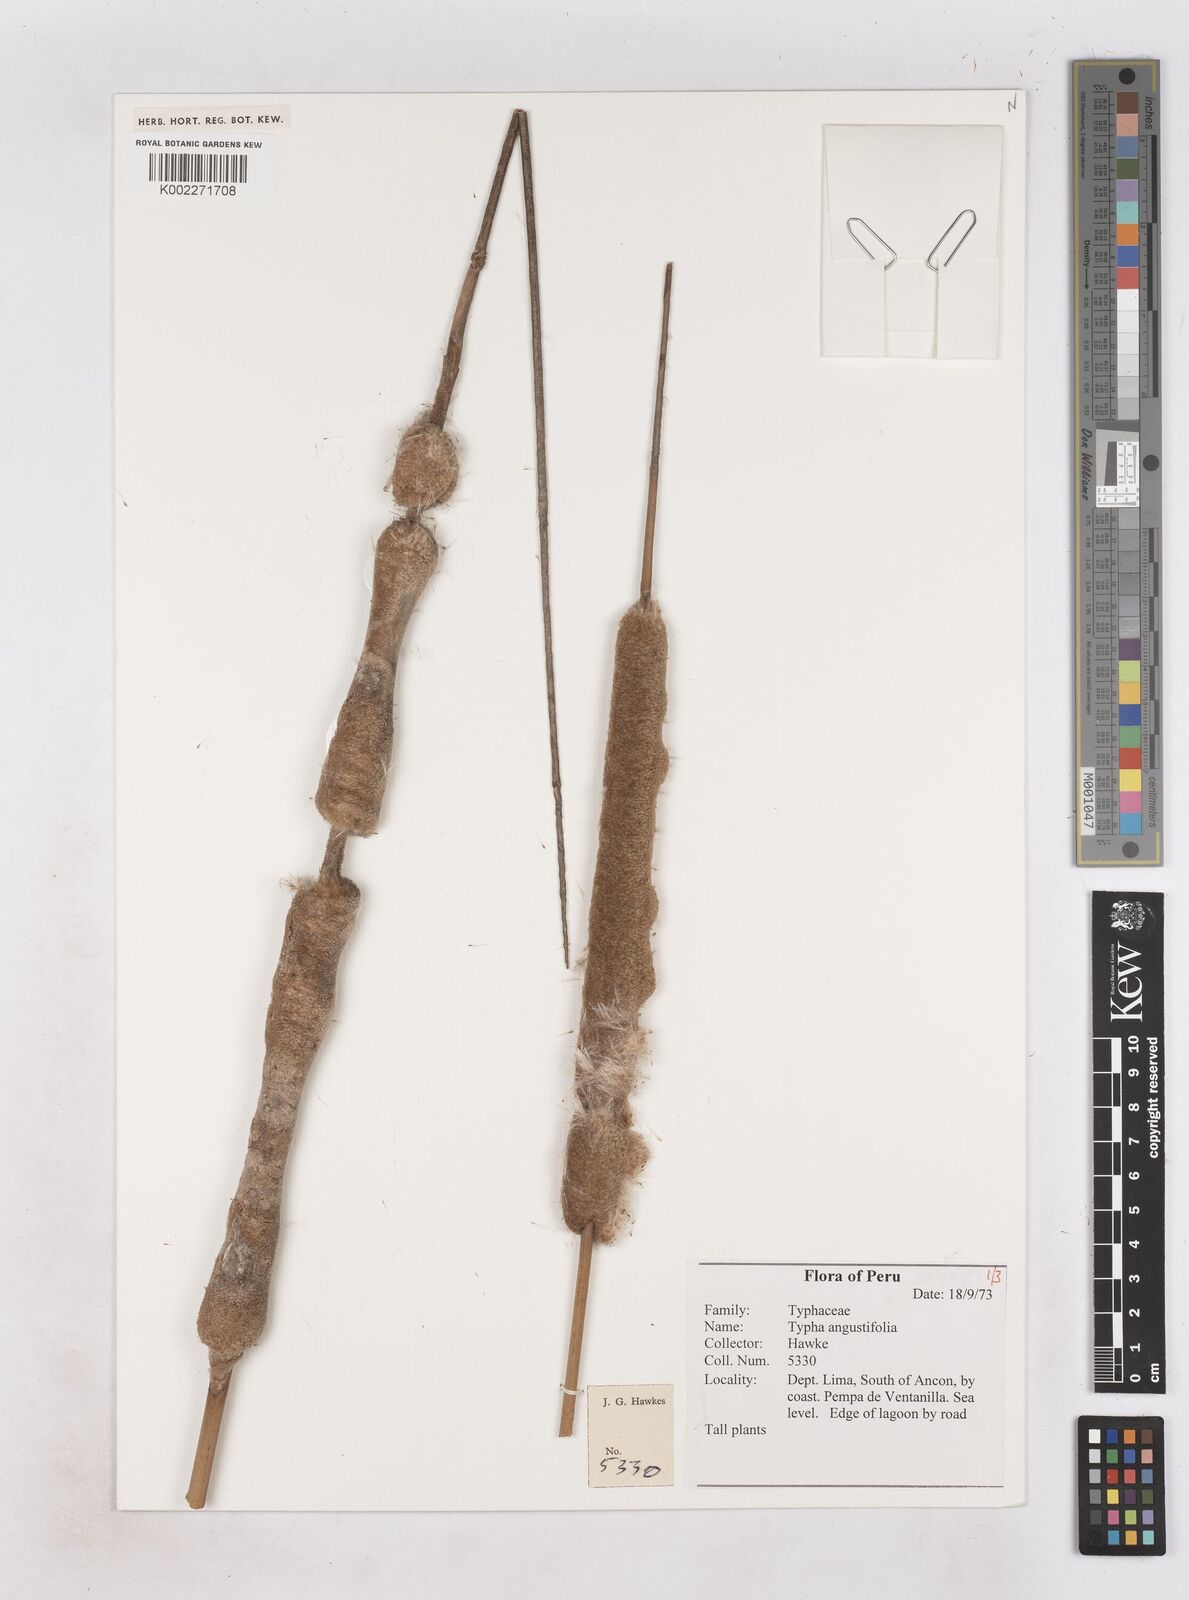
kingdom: Plantae
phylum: Tracheophyta
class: Liliopsida
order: Poales
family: Typhaceae
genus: Typha
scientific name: Typha angustifolia
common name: Lesser bulrush
